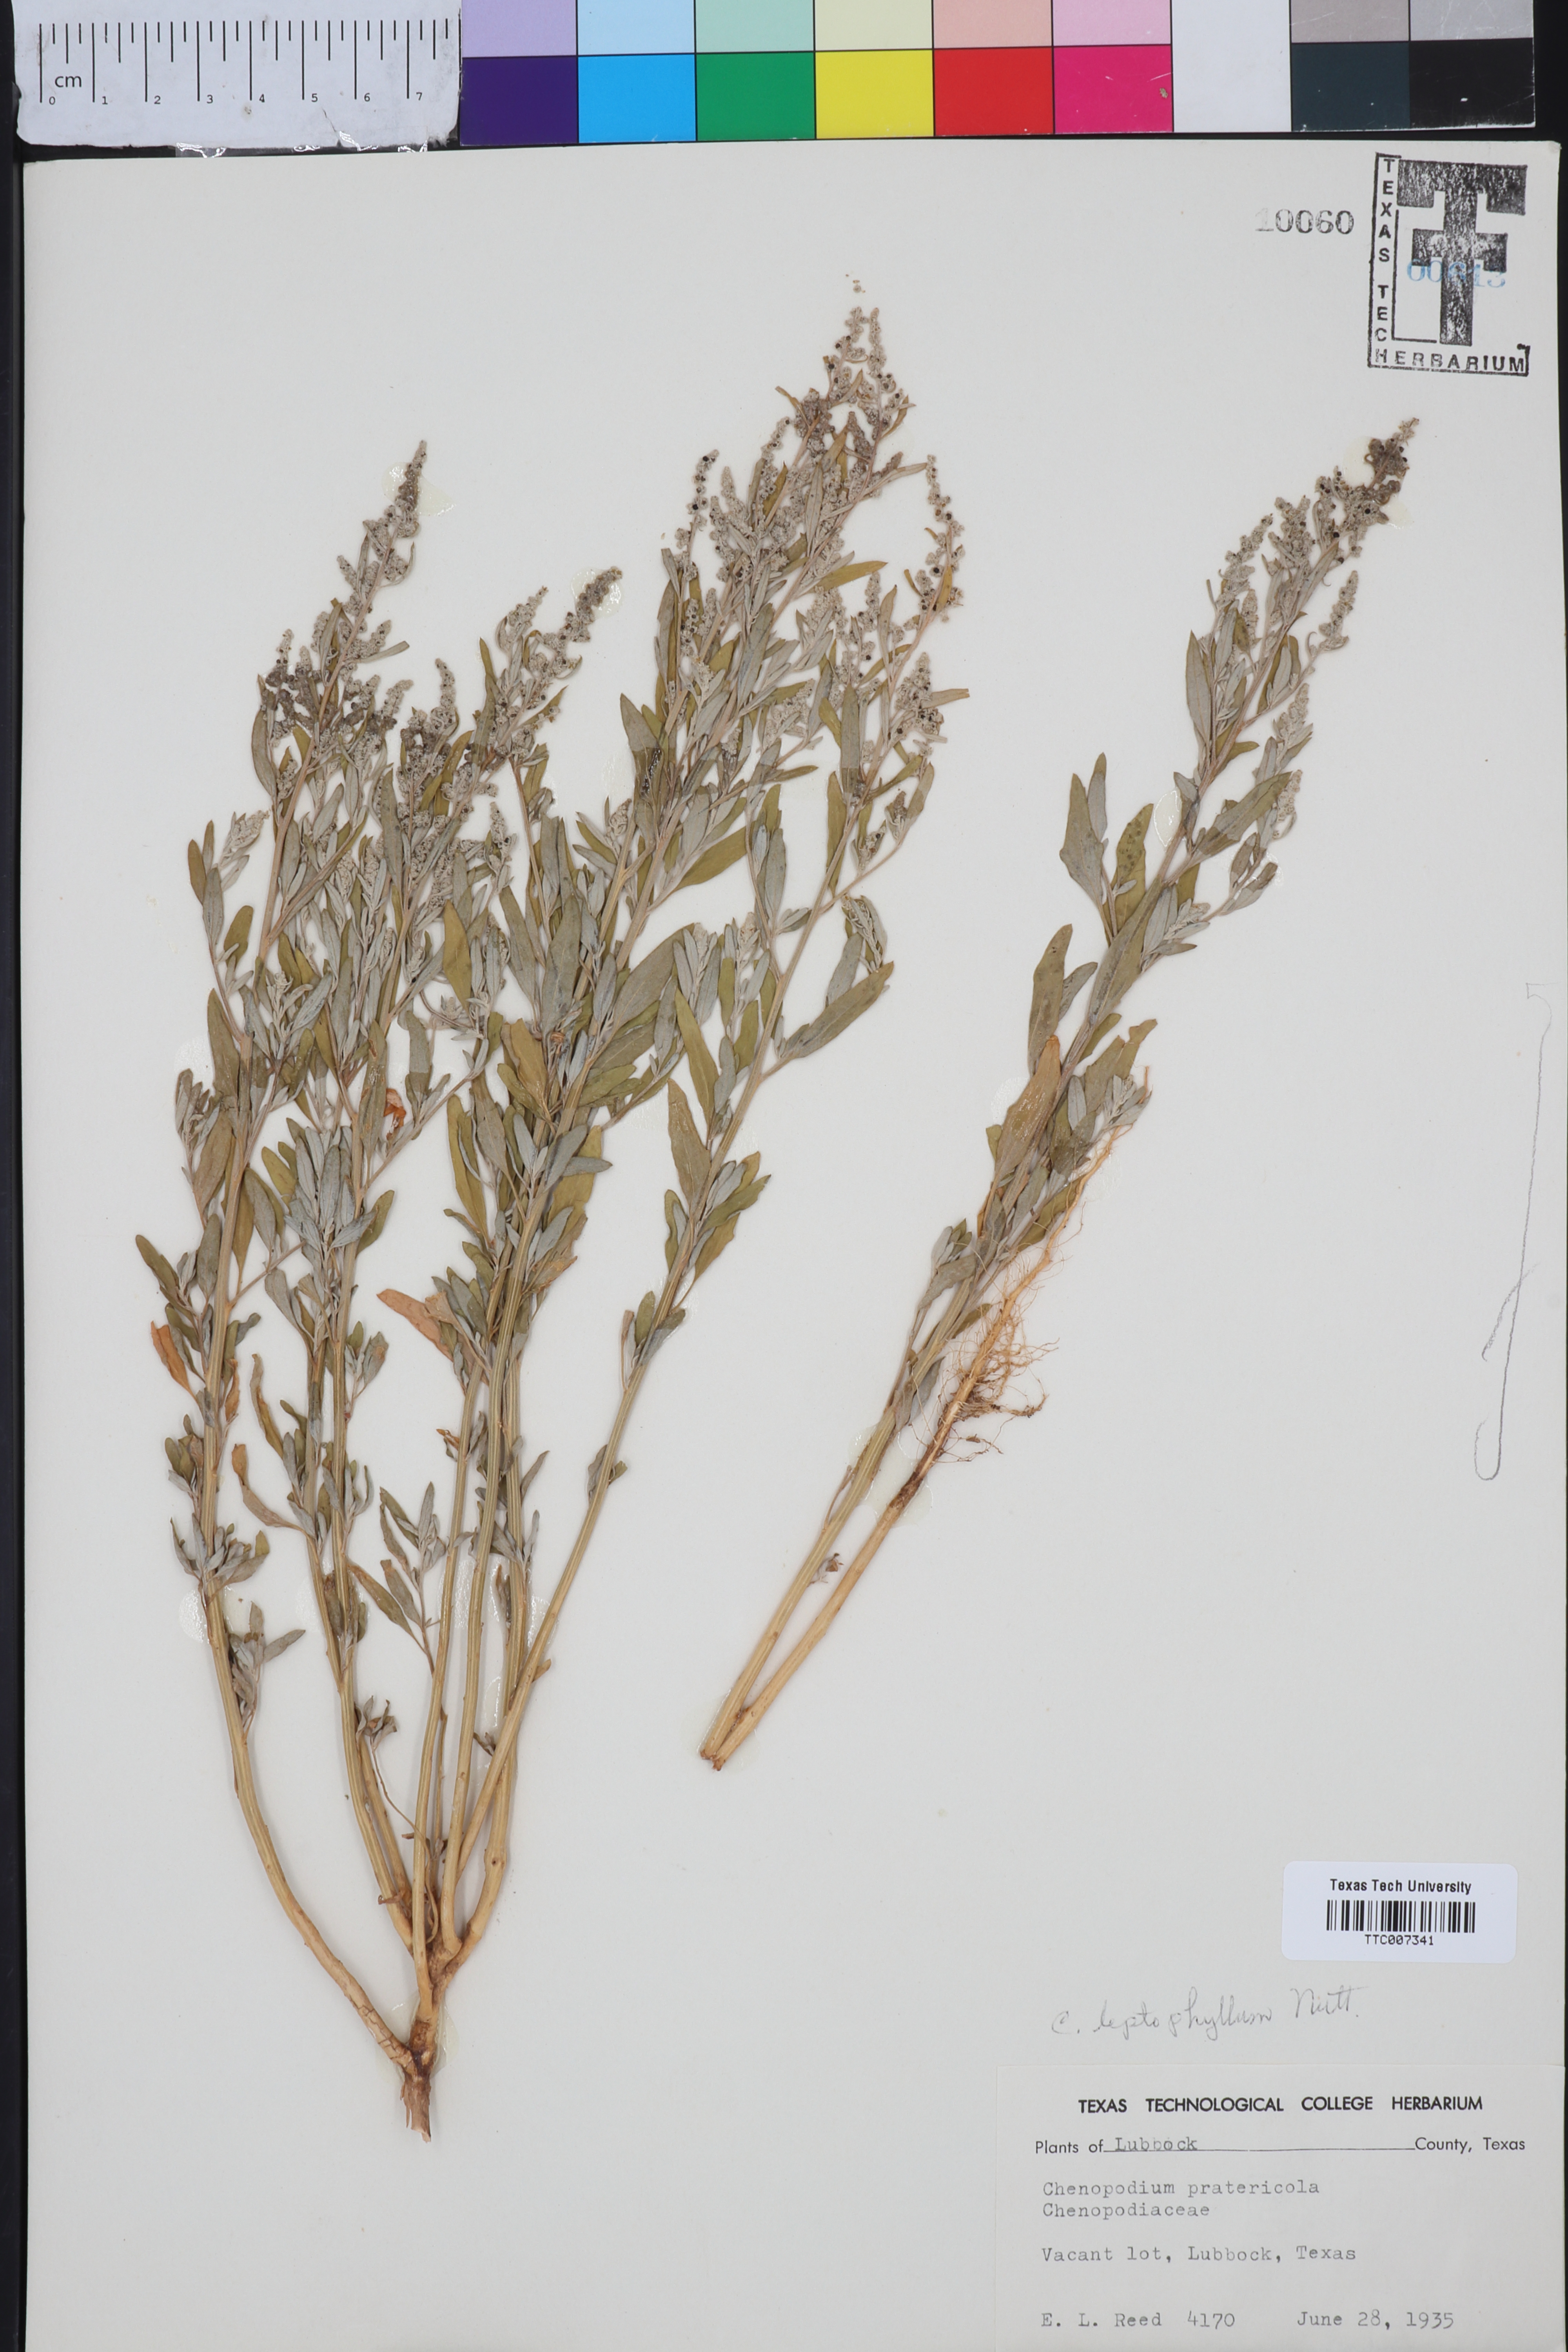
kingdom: Plantae
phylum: Tracheophyta
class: Magnoliopsida
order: Caryophyllales
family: Amaranthaceae
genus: Chenopodium
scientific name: Chenopodium leptophyllum
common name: Narrow-leaf goosefoot
